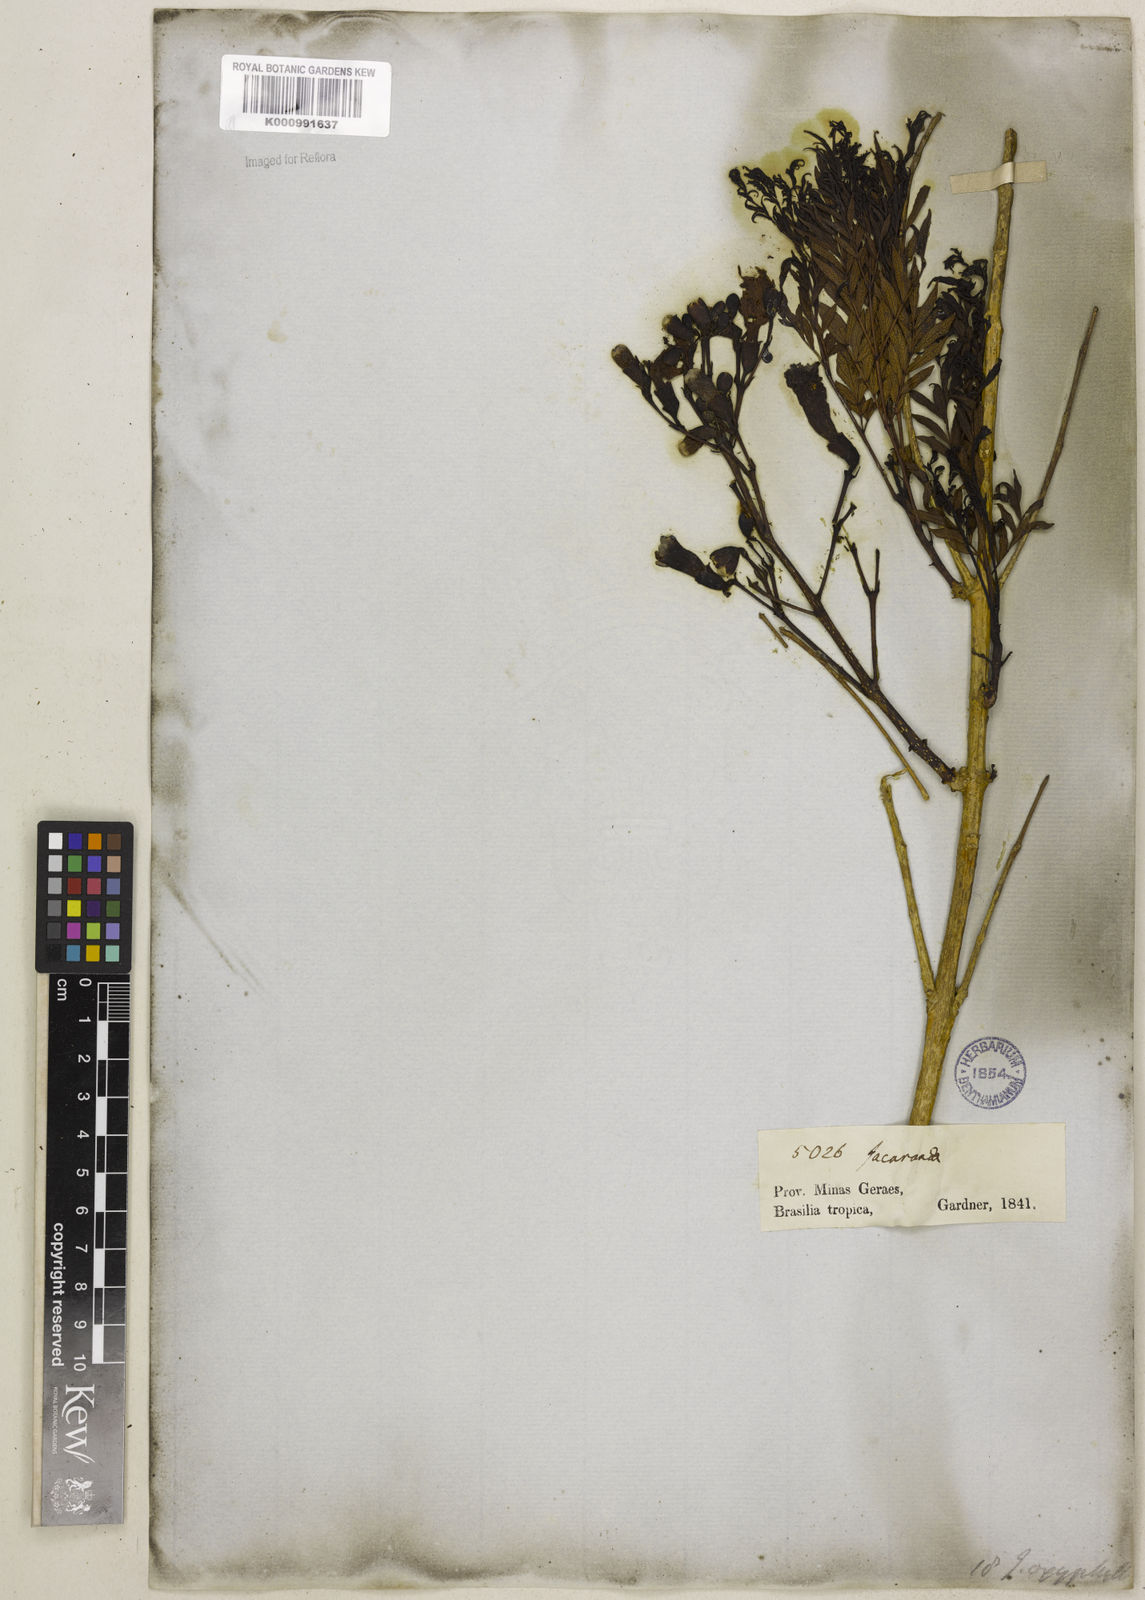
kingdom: Plantae
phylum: Tracheophyta
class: Magnoliopsida
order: Lamiales
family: Bignoniaceae
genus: Jacaranda
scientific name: Jacaranda caroba
